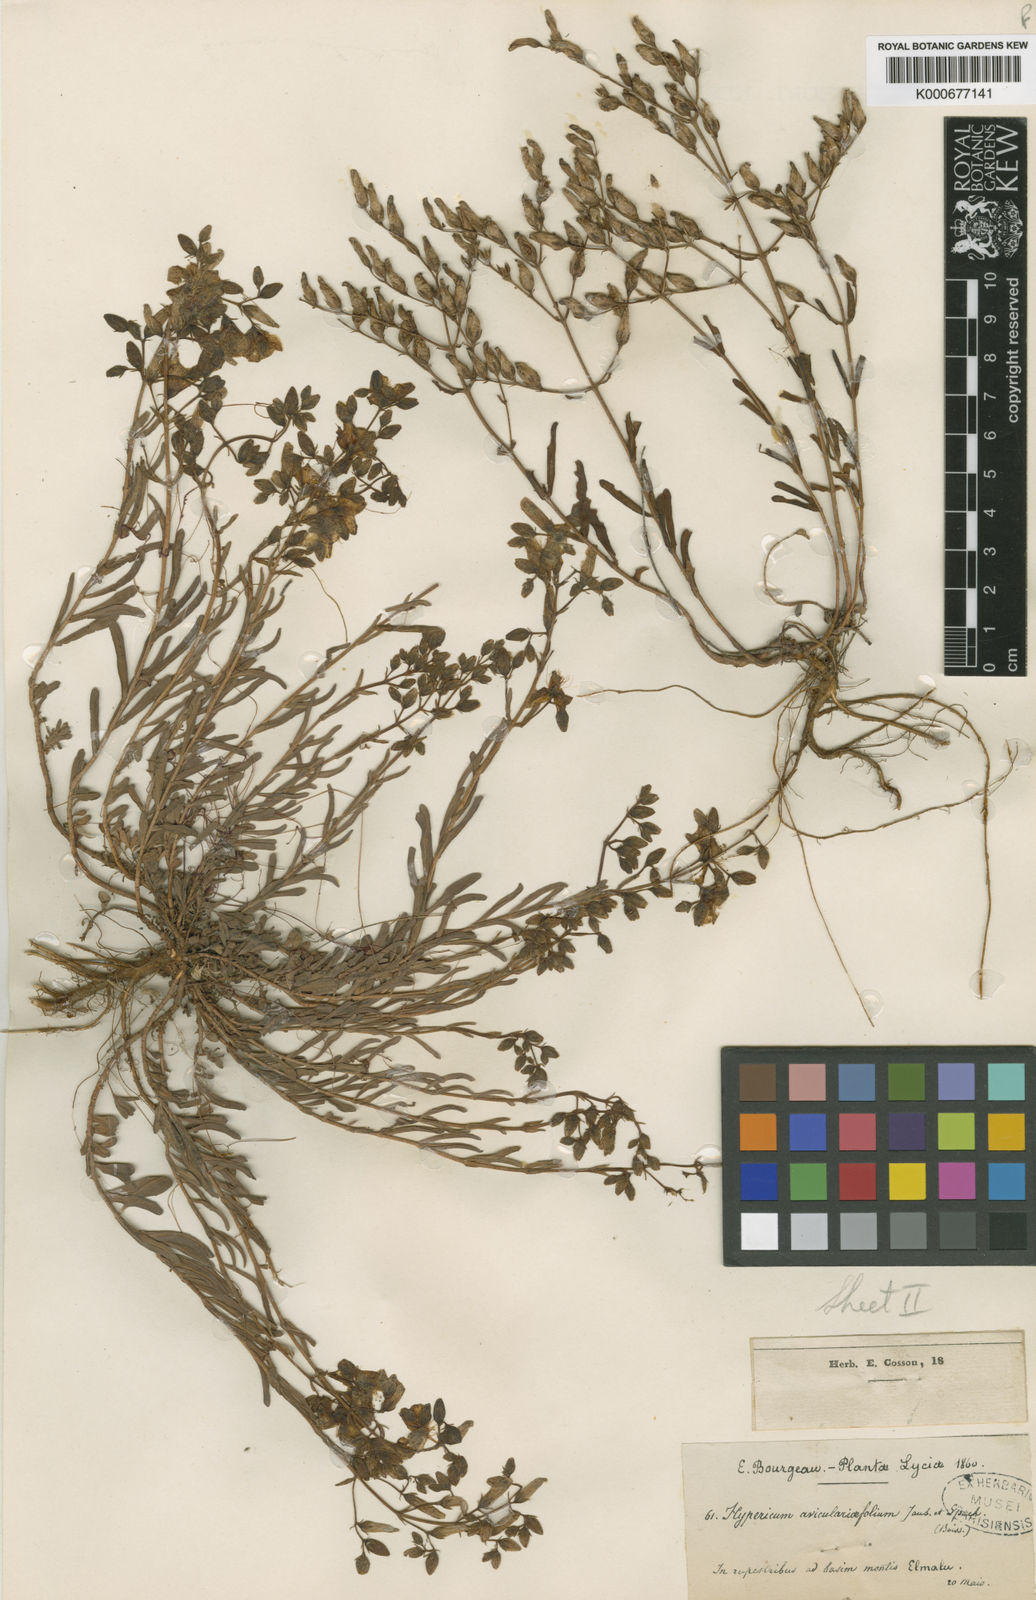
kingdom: Plantae
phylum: Tracheophyta
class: Magnoliopsida
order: Malpighiales
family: Hypericaceae
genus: Hypericum
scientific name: Hypericum
